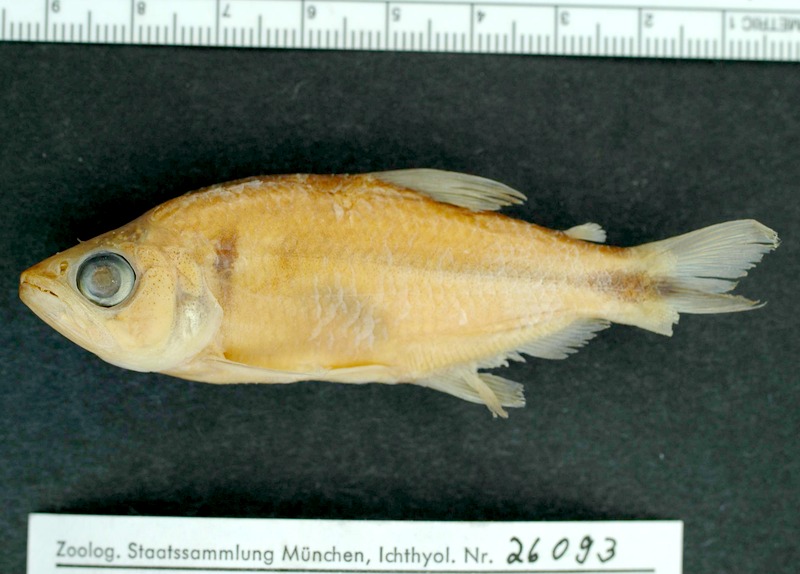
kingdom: Animalia
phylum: Chordata
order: Characiformes
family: Characidae
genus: Oligosarcus
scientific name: Oligosarcus planaltinae
